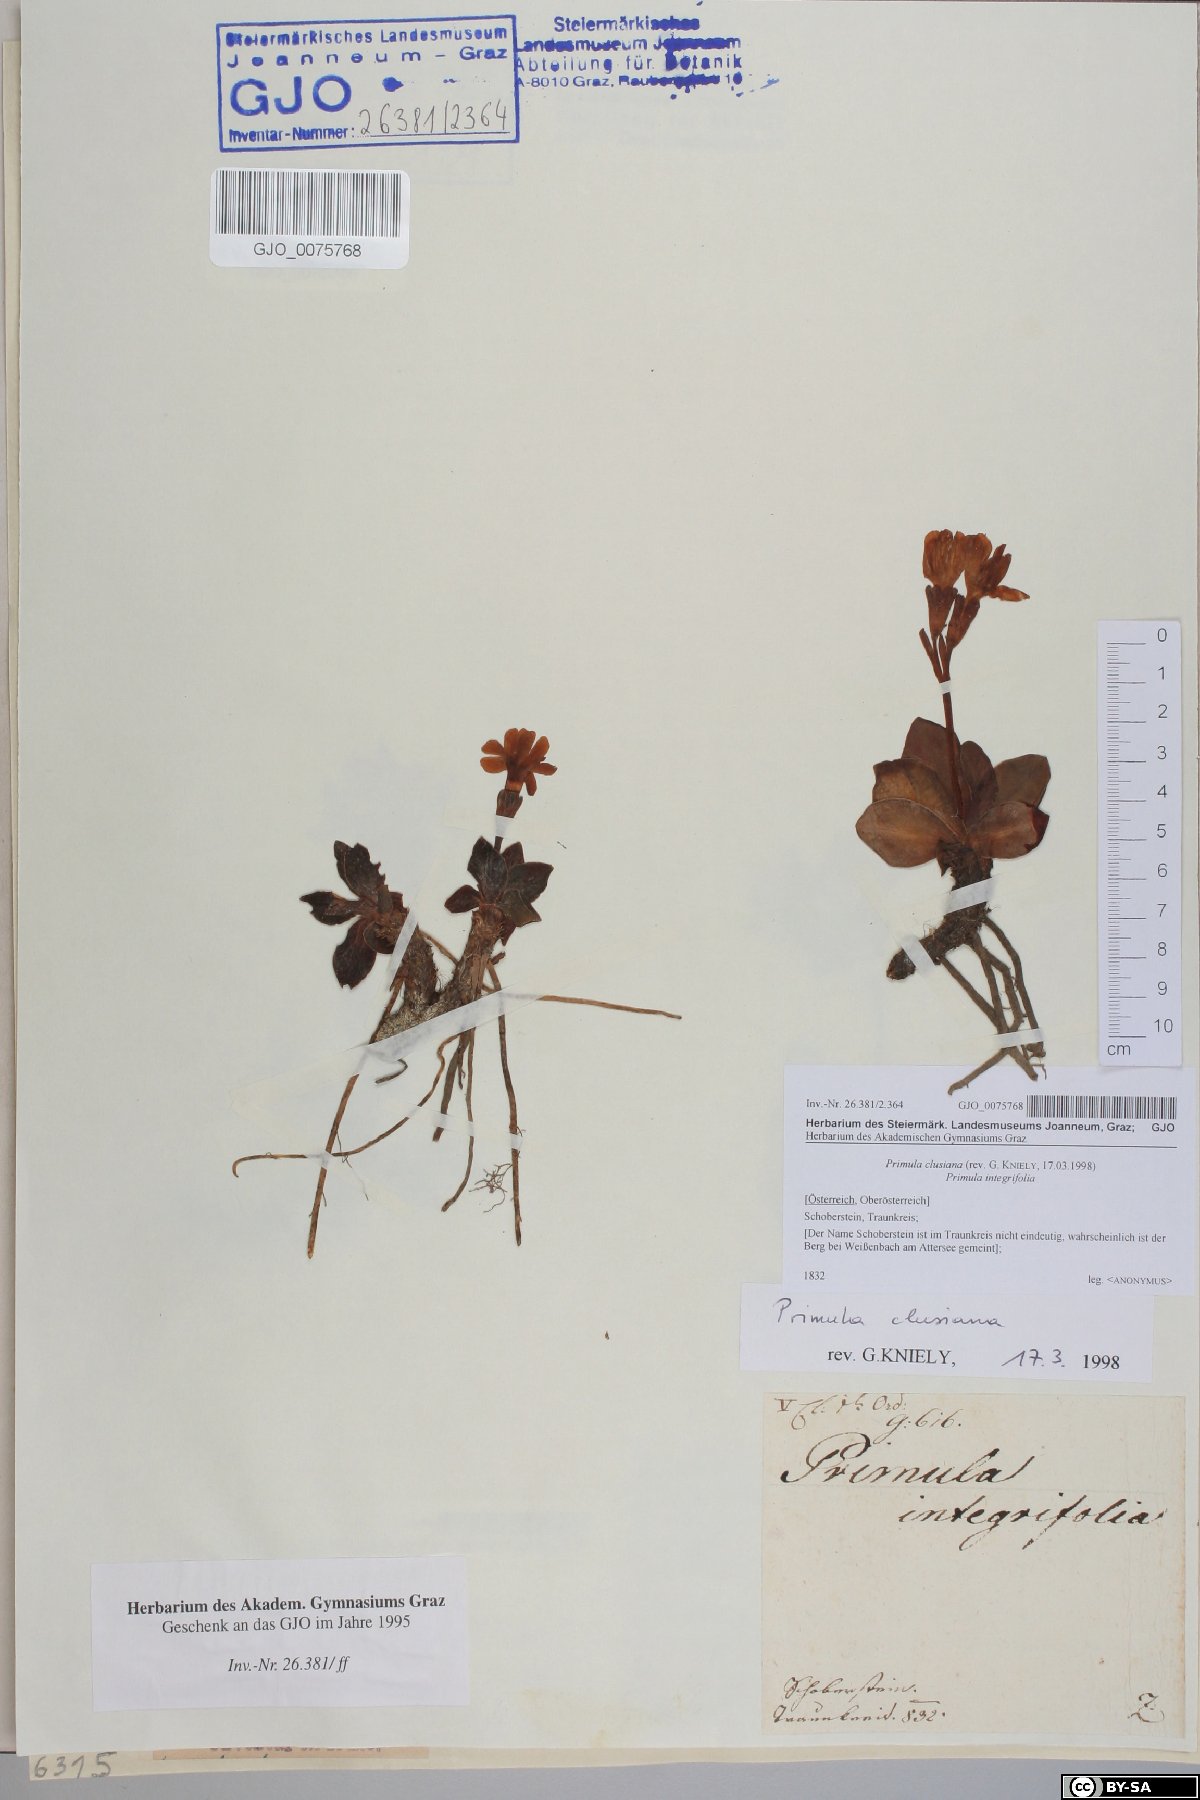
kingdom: Plantae
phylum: Tracheophyta
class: Magnoliopsida
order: Ericales
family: Primulaceae
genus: Primula
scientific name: Primula clusiana
